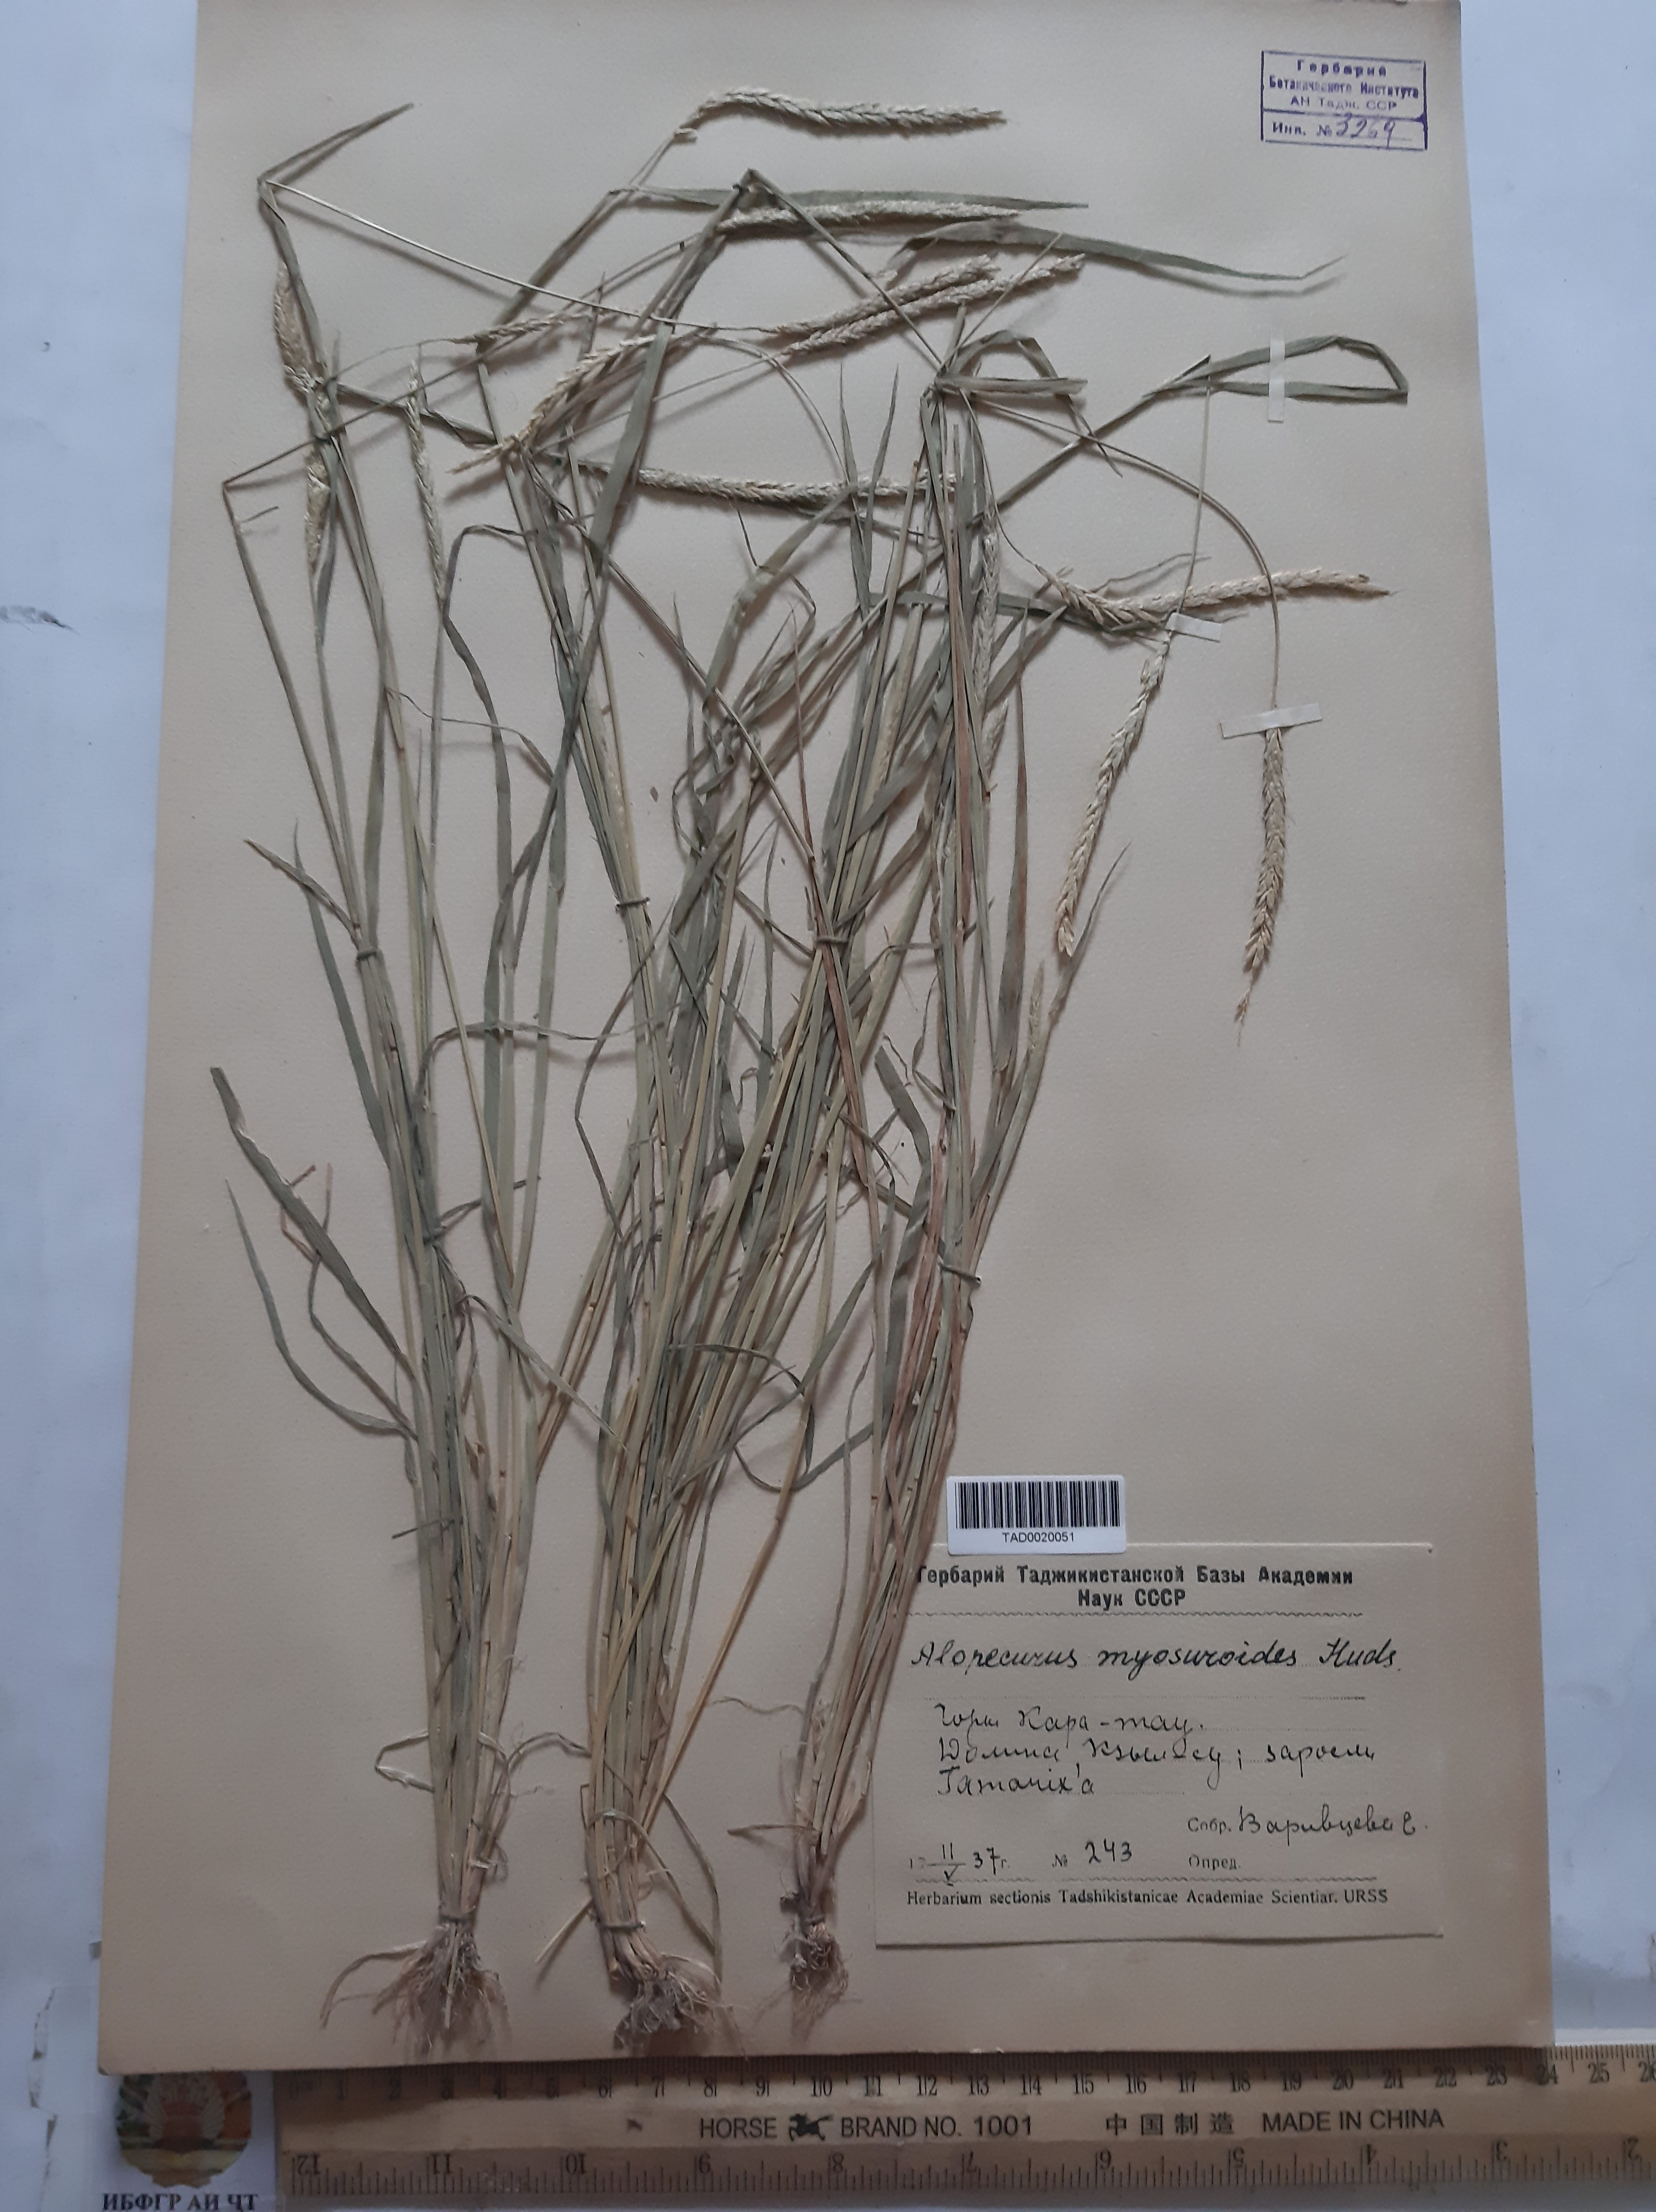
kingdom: Plantae
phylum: Tracheophyta
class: Liliopsida
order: Poales
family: Poaceae
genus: Alopecurus
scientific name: Alopecurus myosuroides
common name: Black-grass
